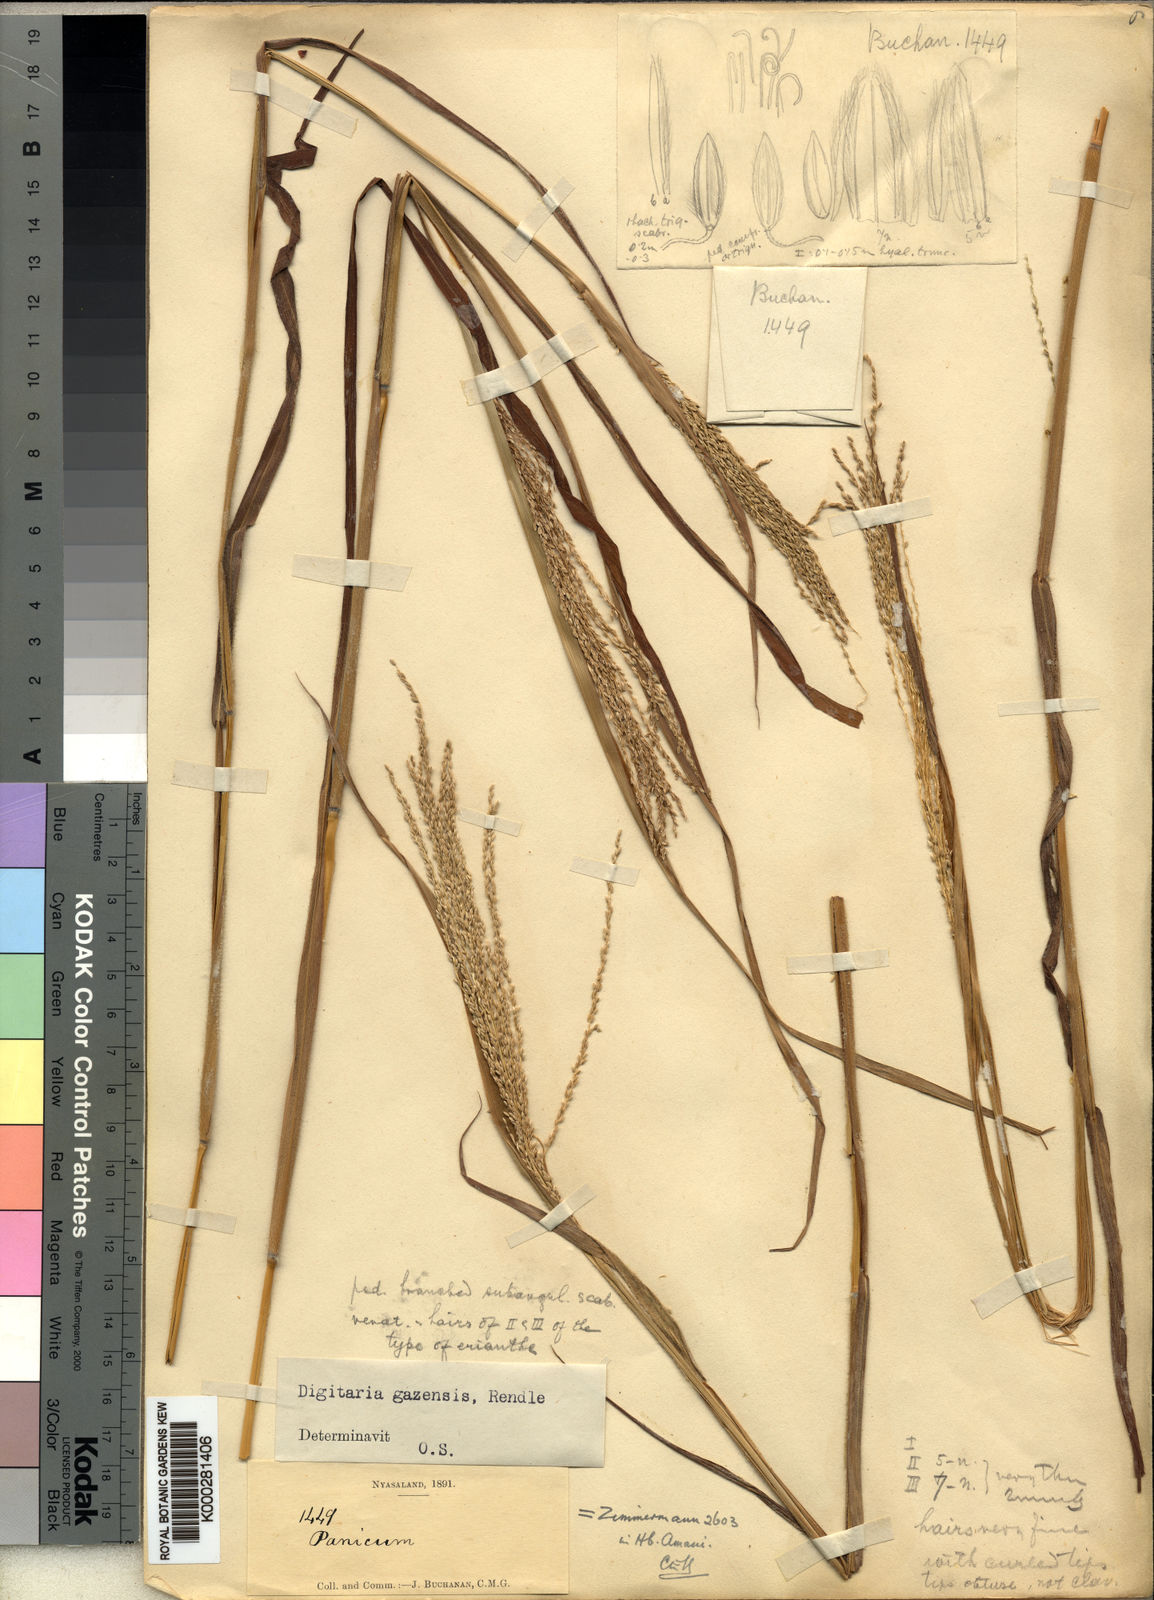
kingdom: Plantae
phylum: Tracheophyta
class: Liliopsida
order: Poales
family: Poaceae
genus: Digitaria
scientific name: Digitaria gazensis
